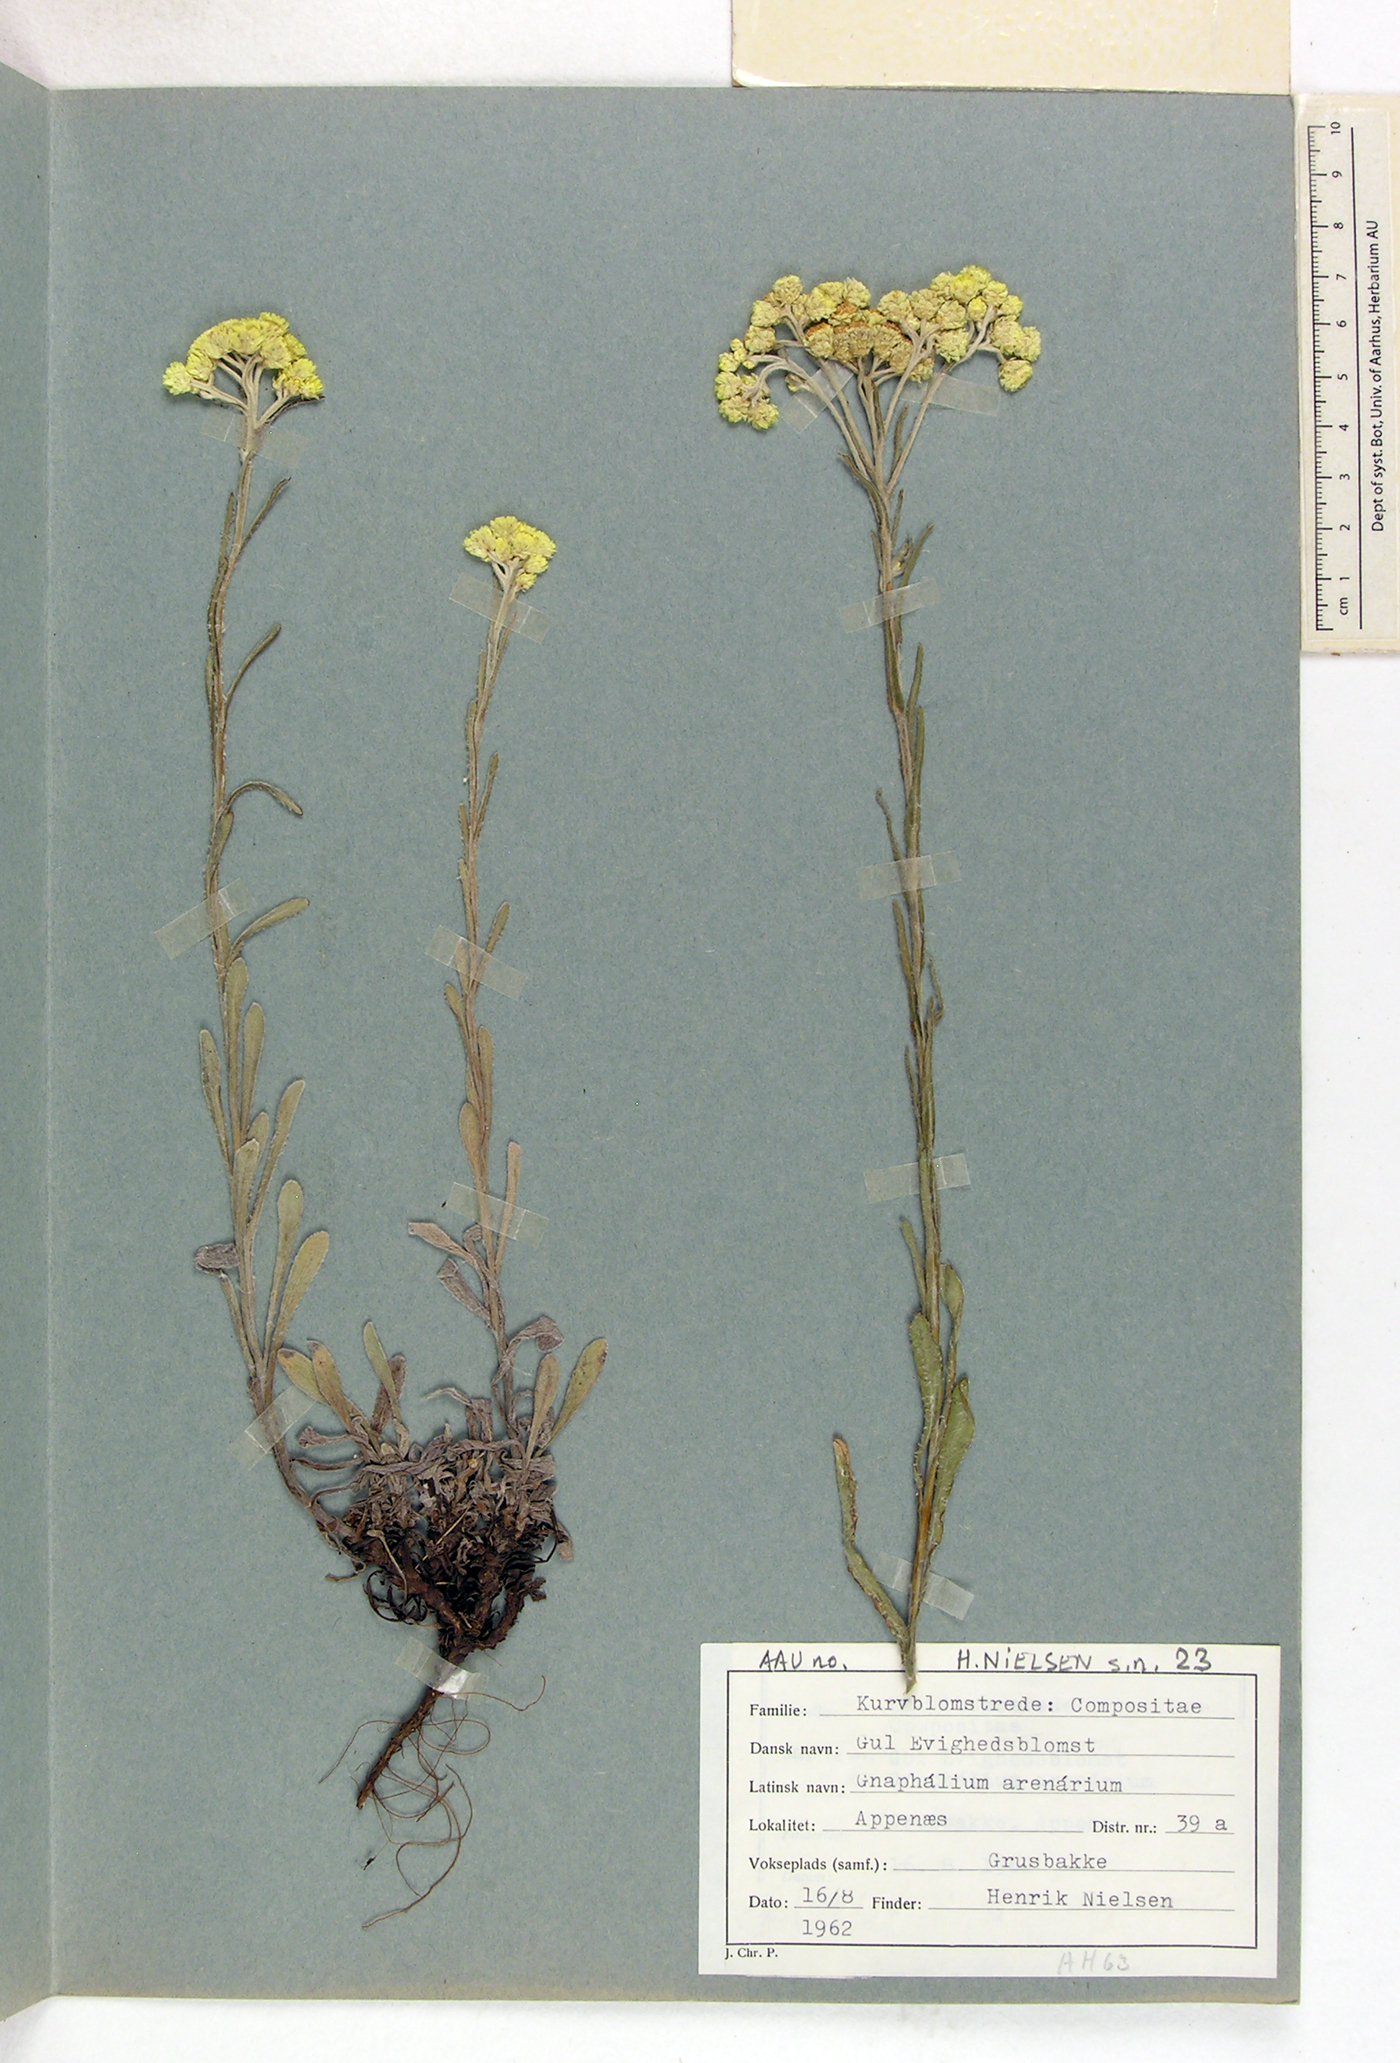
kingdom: Plantae
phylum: Tracheophyta
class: Magnoliopsida
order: Asterales
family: Asteraceae
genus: Helichrysum
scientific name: Helichrysum arenarium
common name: Strawflower
